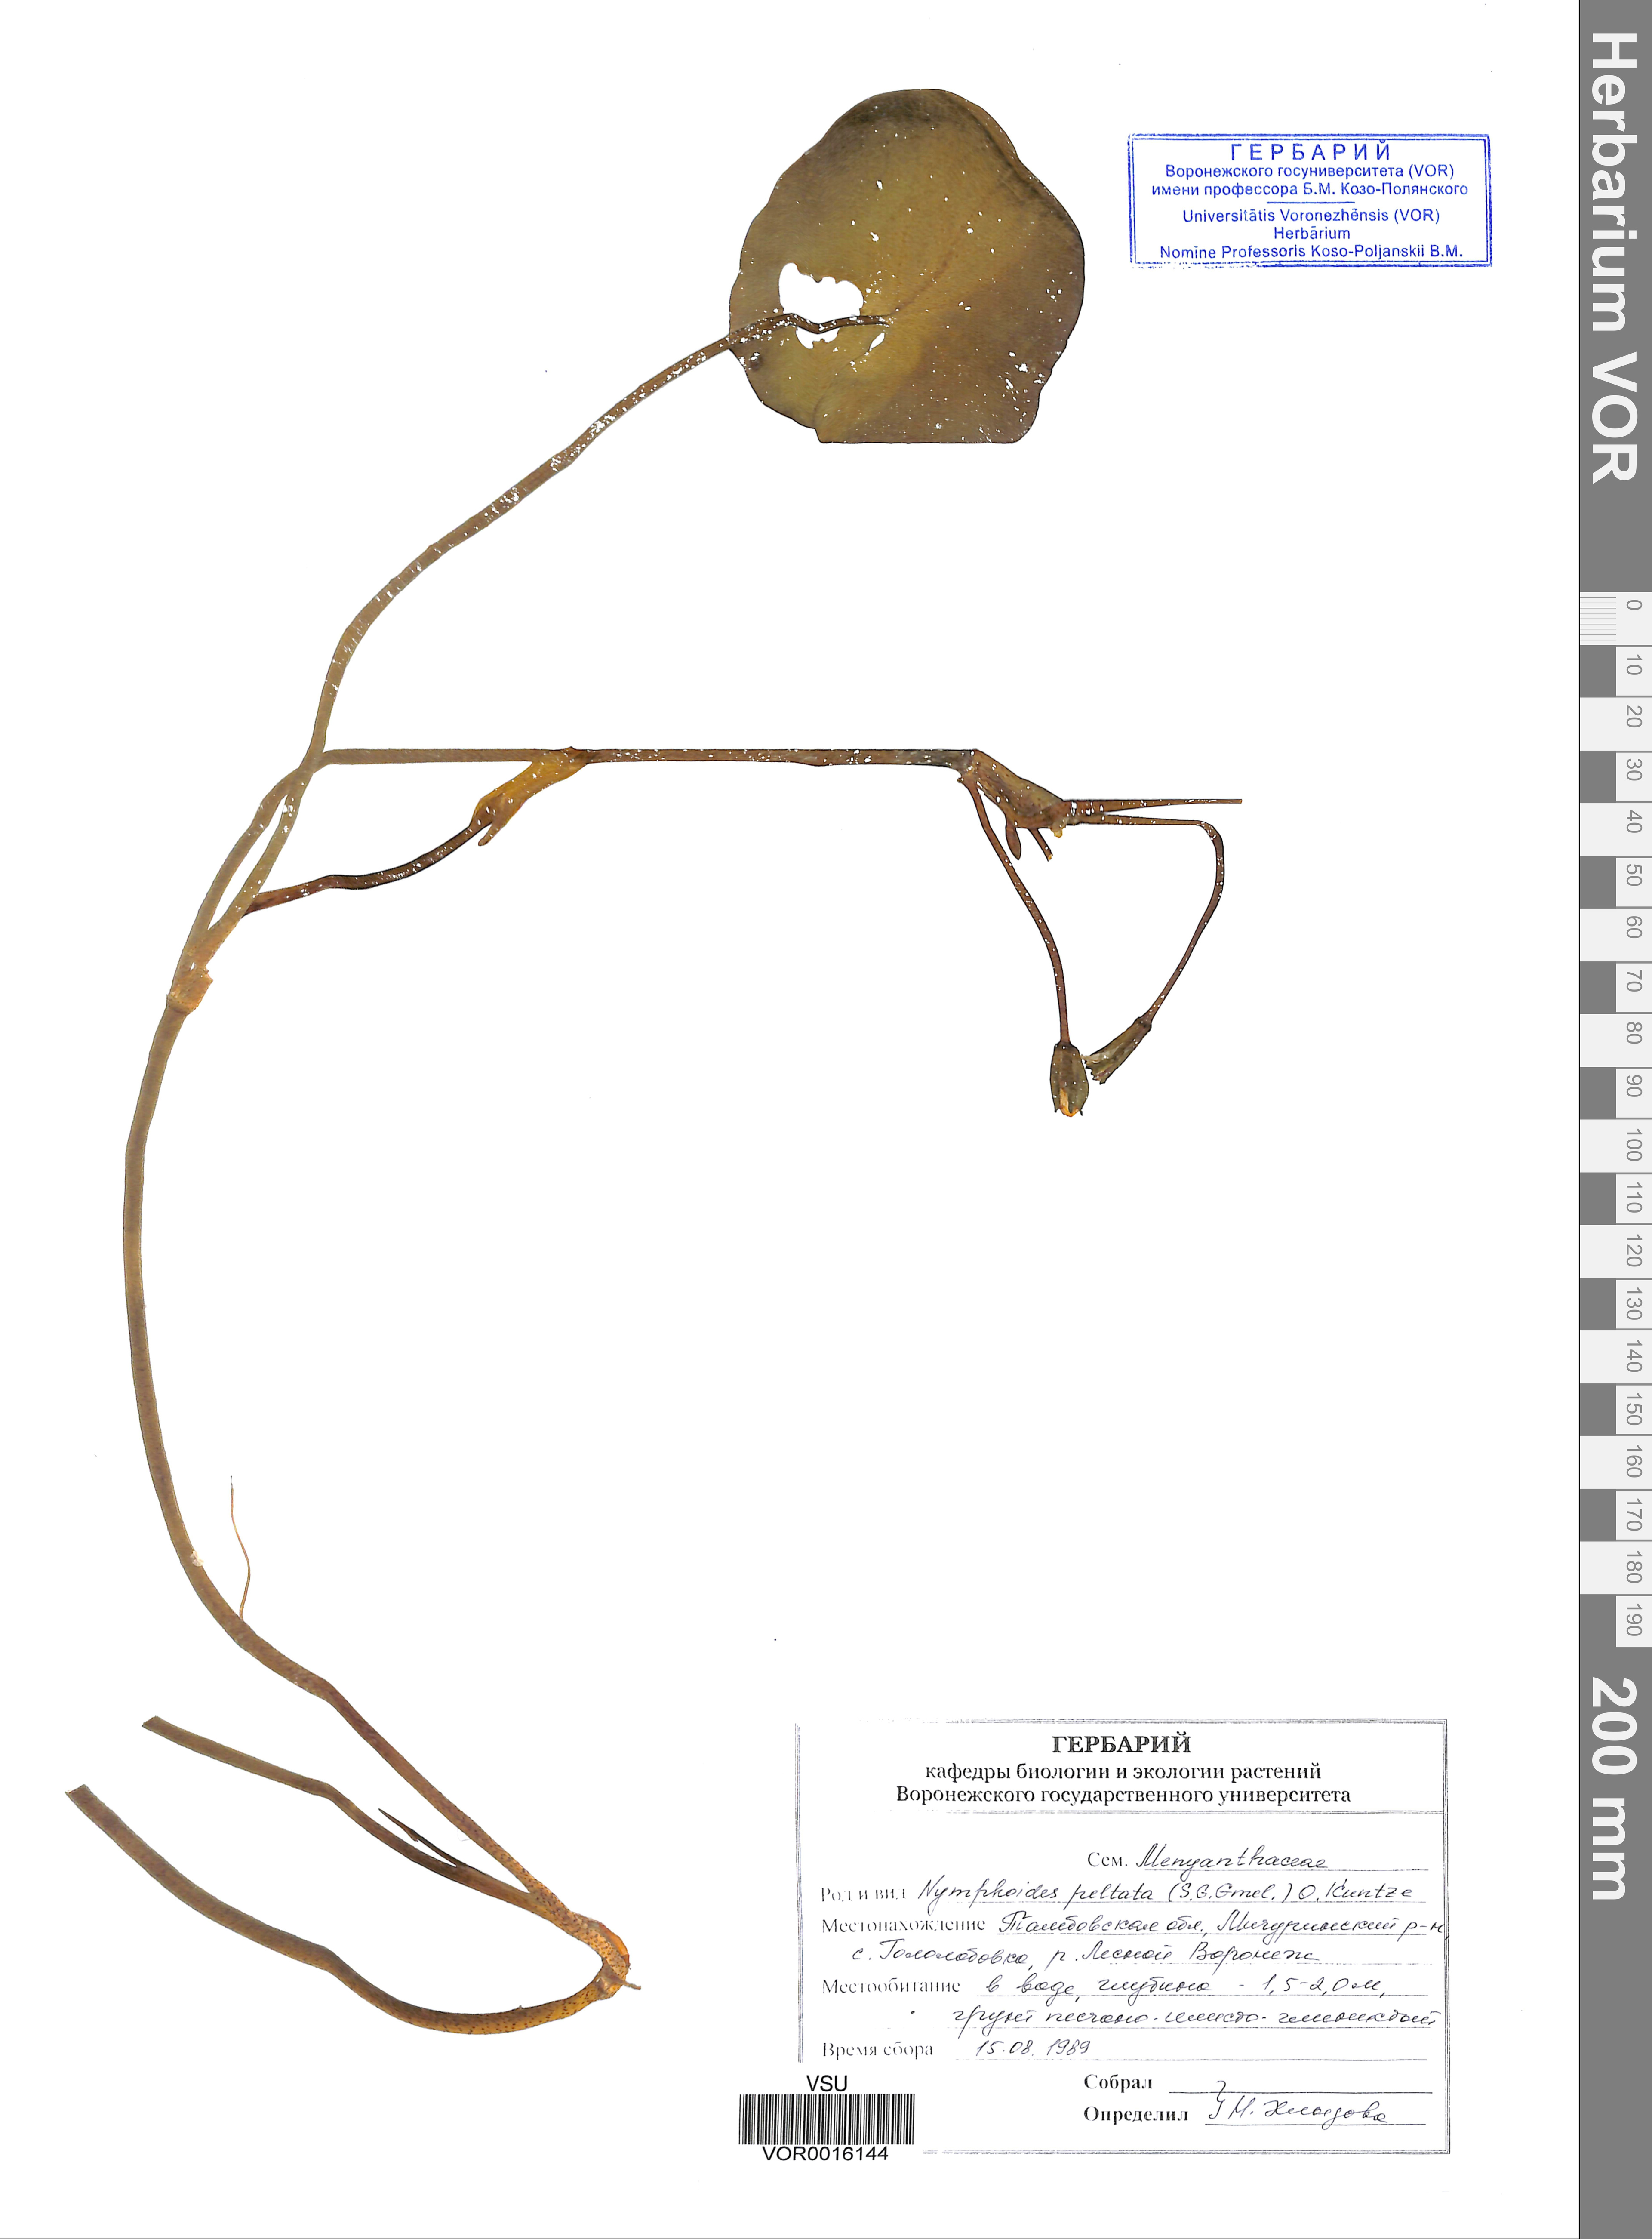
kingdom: Plantae
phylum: Tracheophyta
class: Magnoliopsida
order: Asterales
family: Menyanthaceae
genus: Nymphoides
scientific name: Nymphoides peltata
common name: Fringed water-lily
